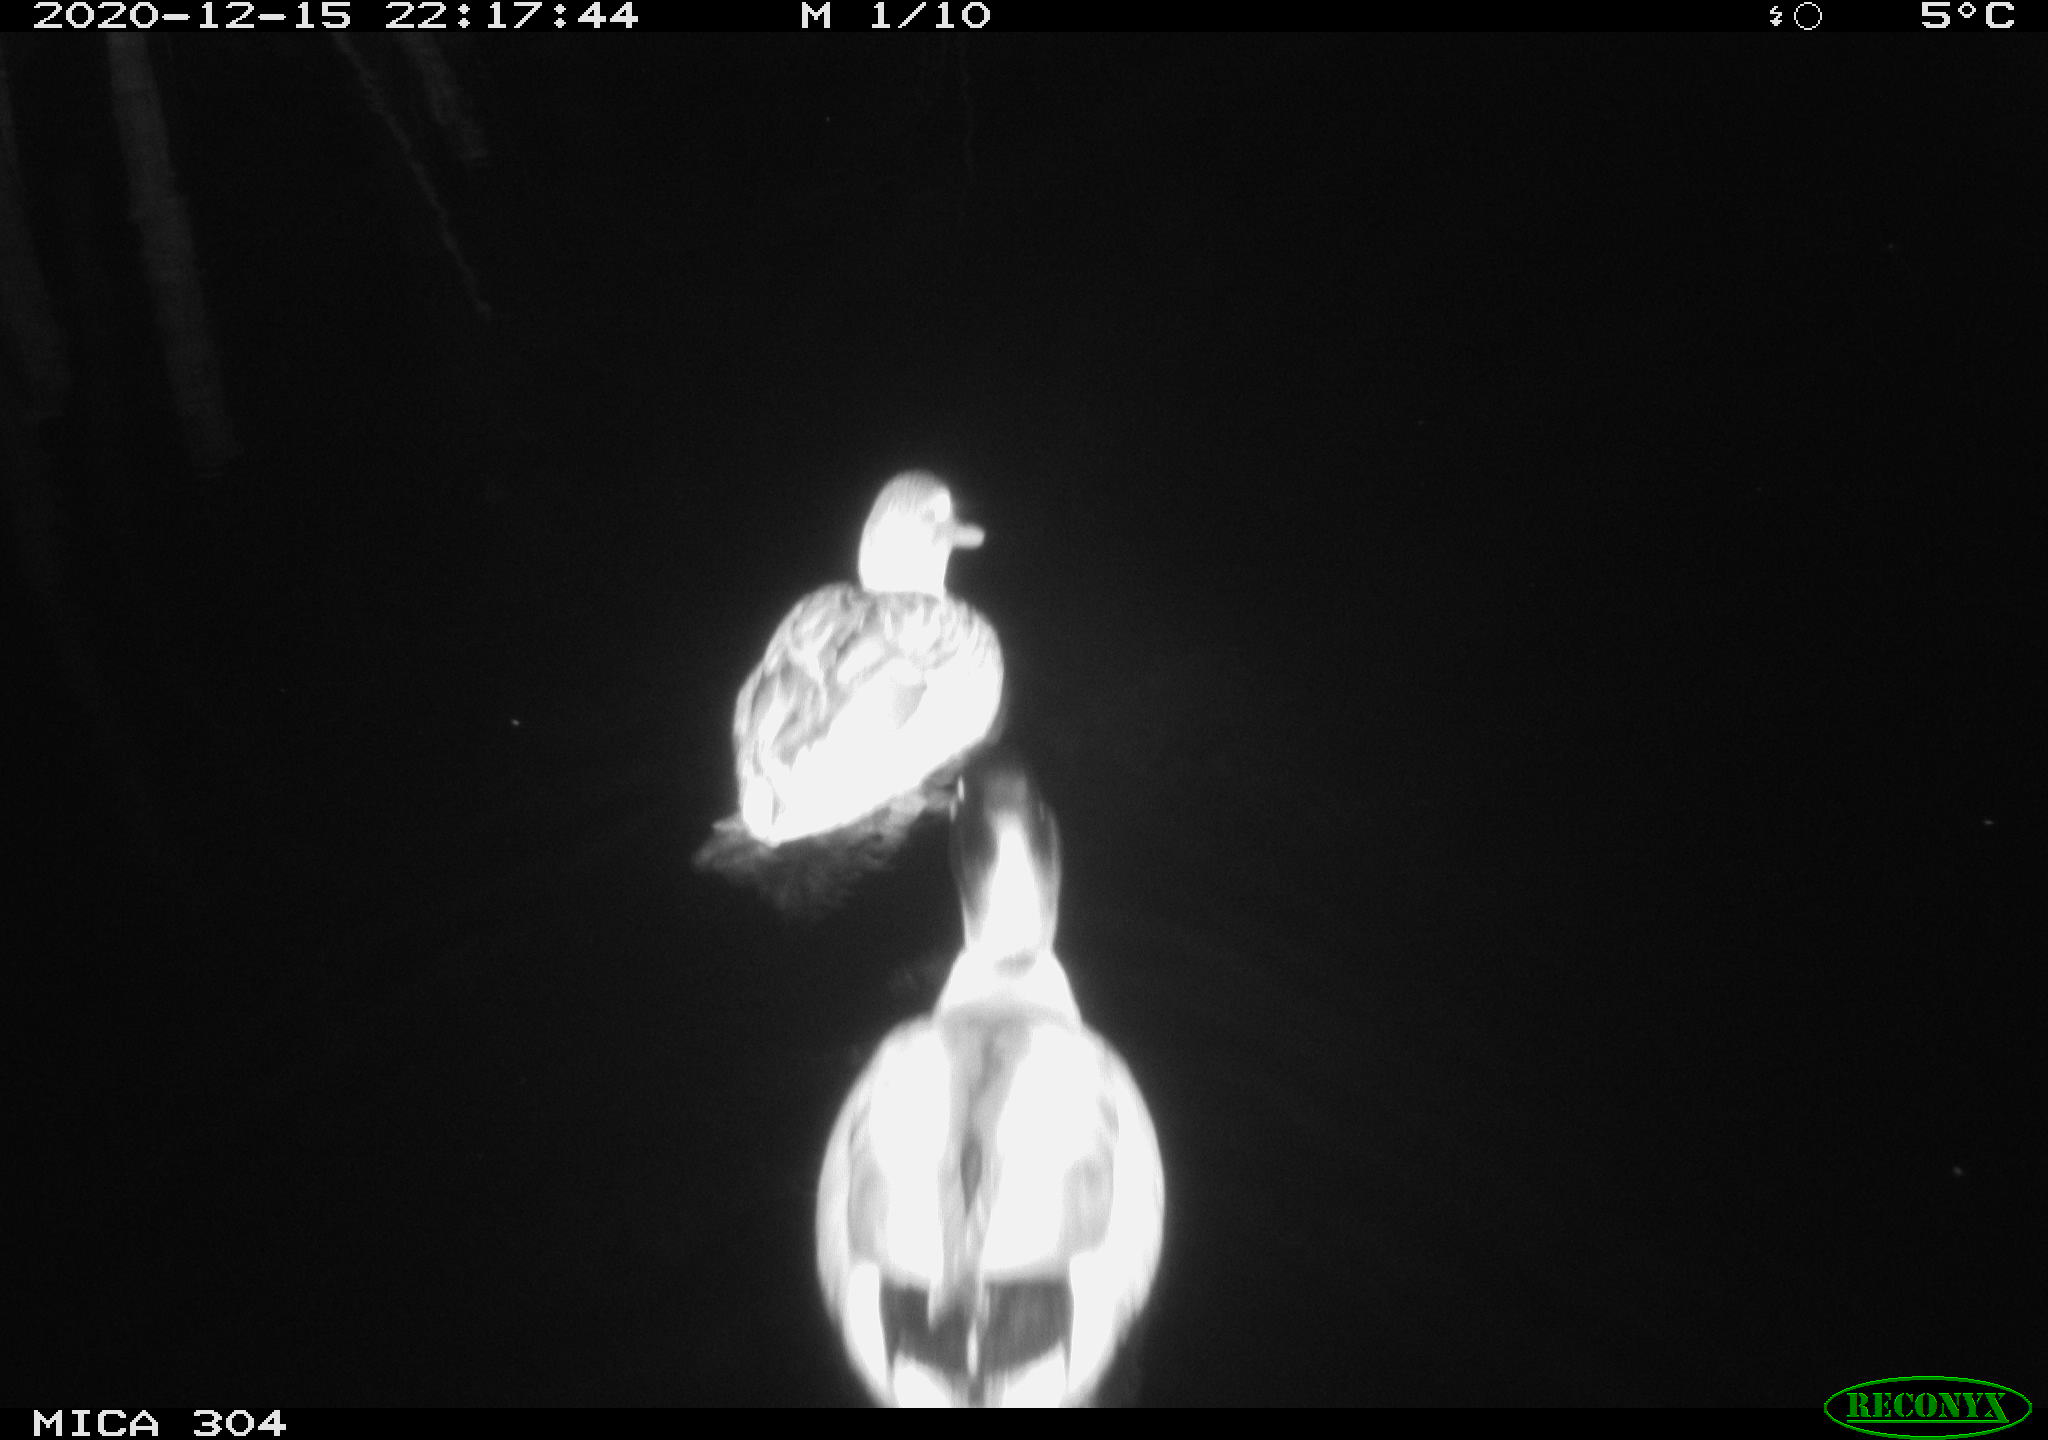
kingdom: Animalia
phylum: Chordata
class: Aves
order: Anseriformes
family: Anatidae
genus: Anas
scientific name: Anas platyrhynchos
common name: Mallard
